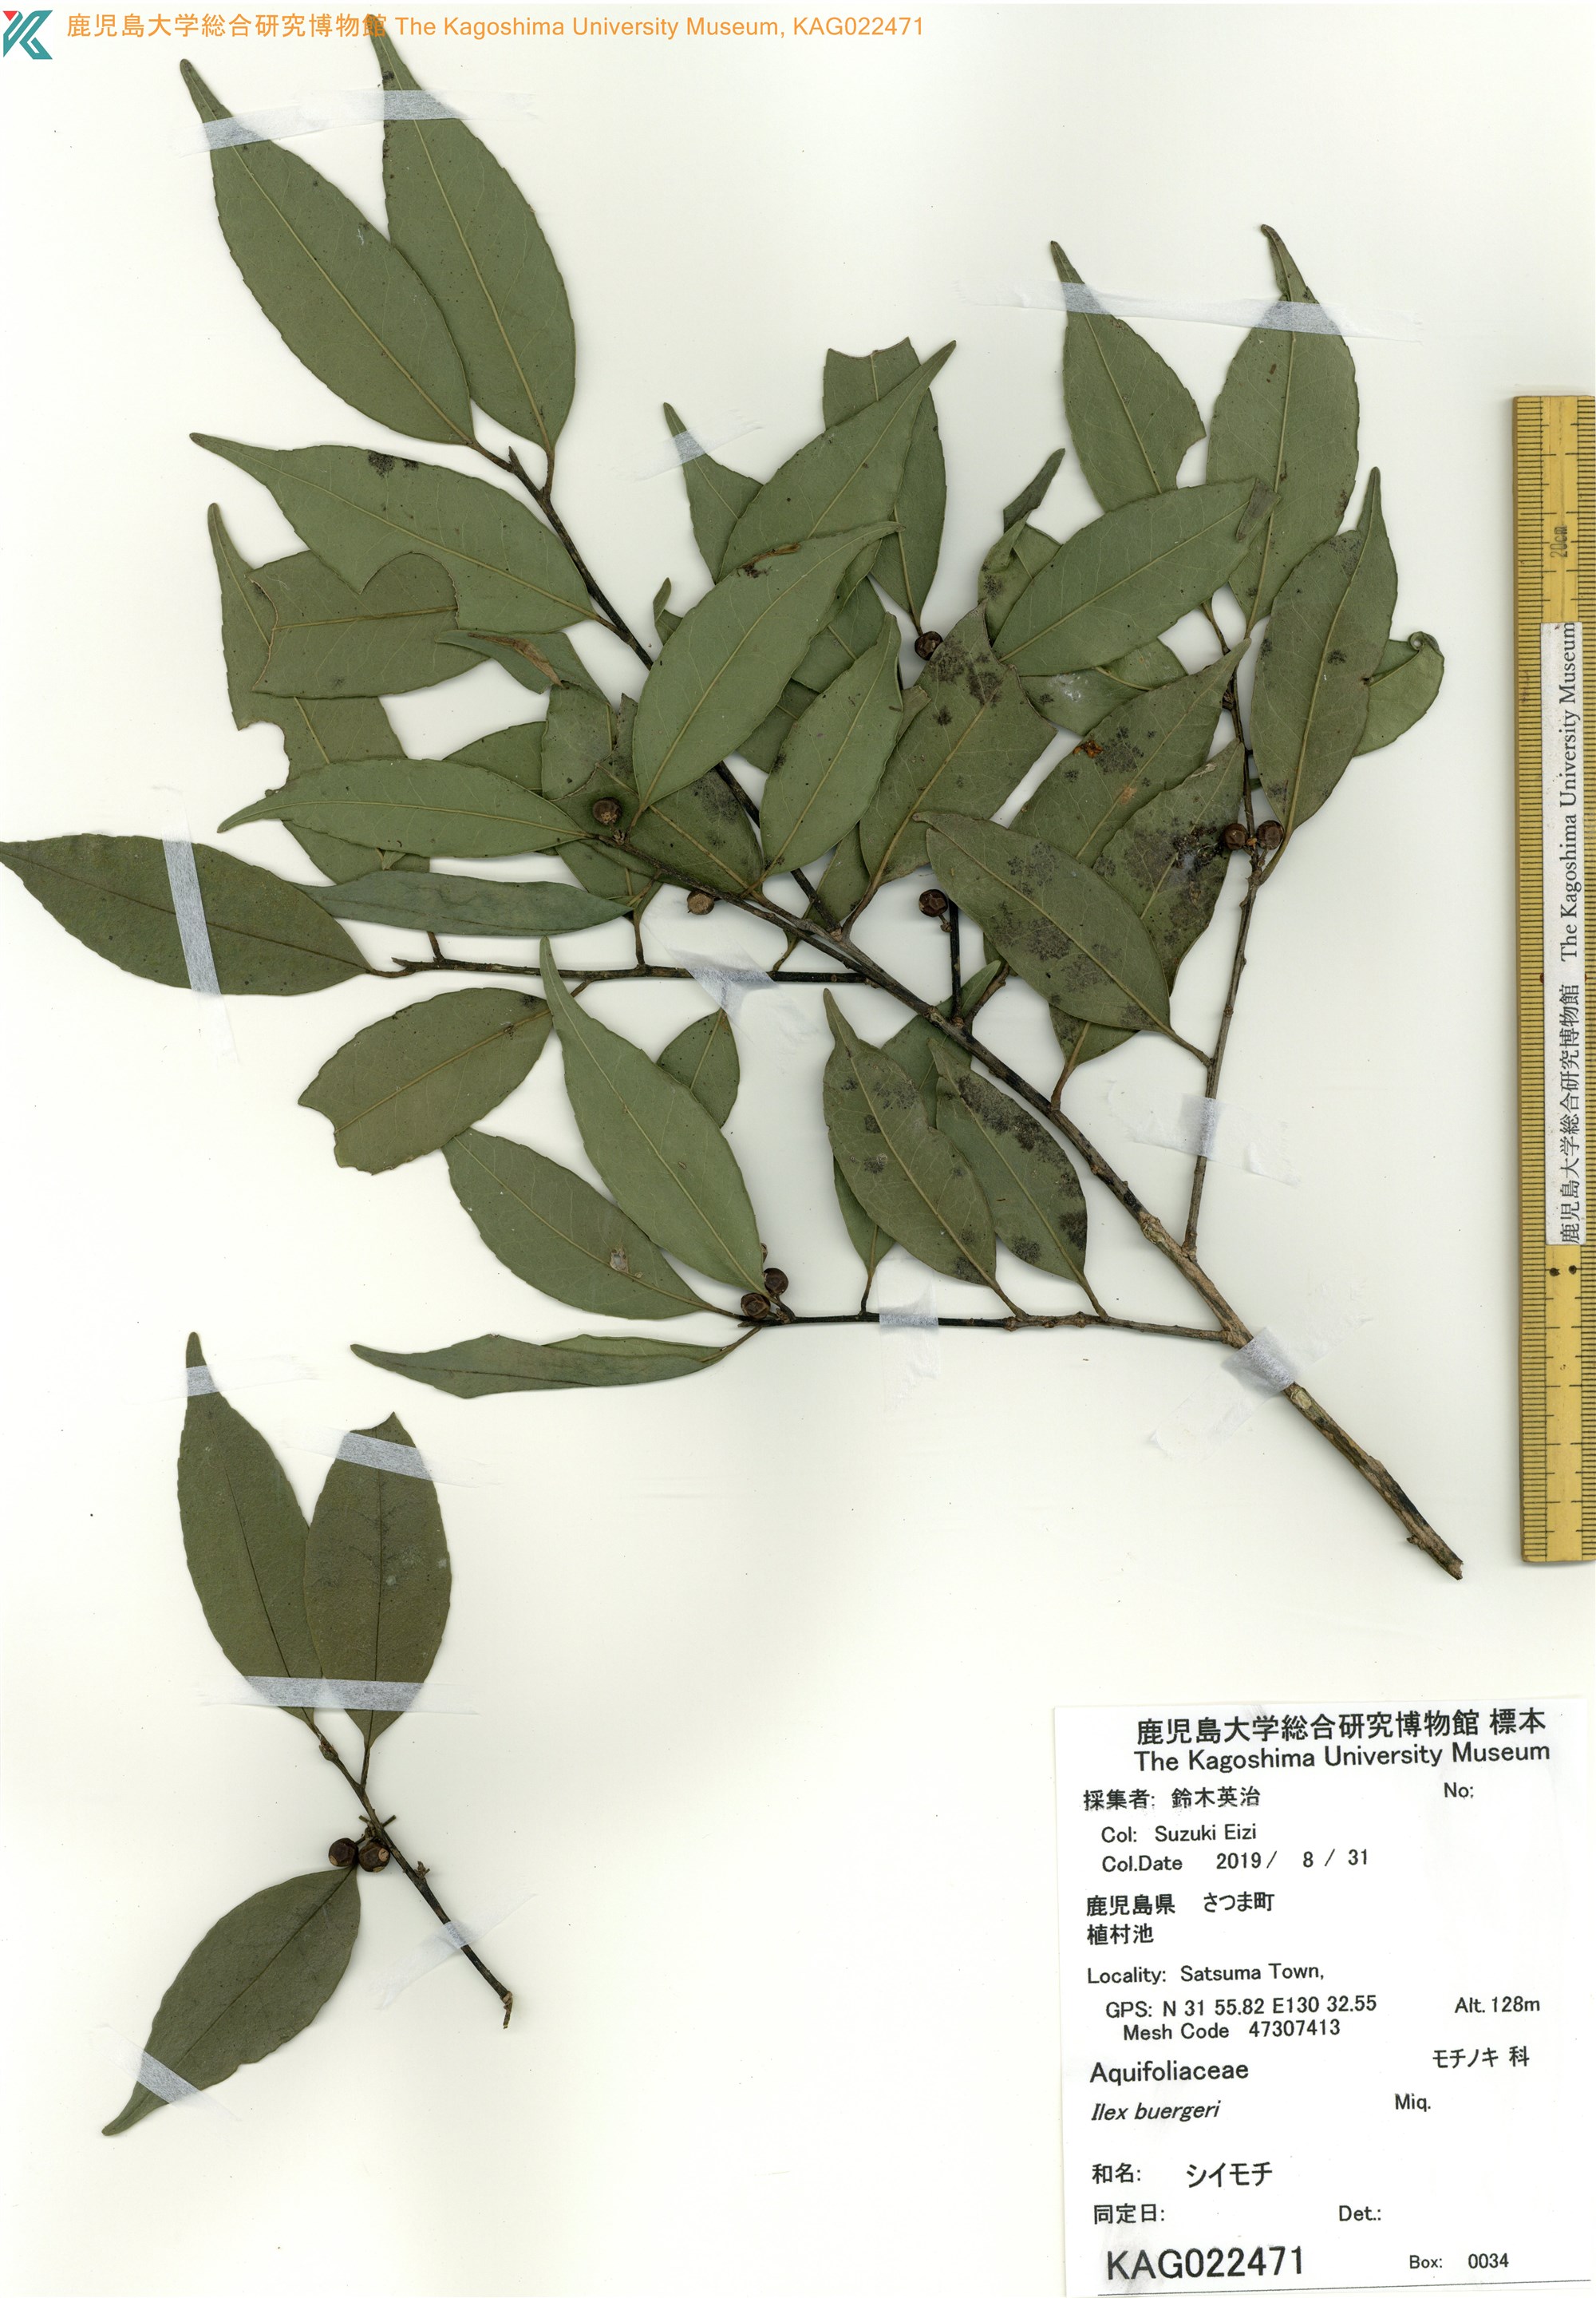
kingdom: Plantae
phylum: Tracheophyta
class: Magnoliopsida
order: Aquifoliales
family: Aquifoliaceae
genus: Ilex
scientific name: Ilex buergeri
